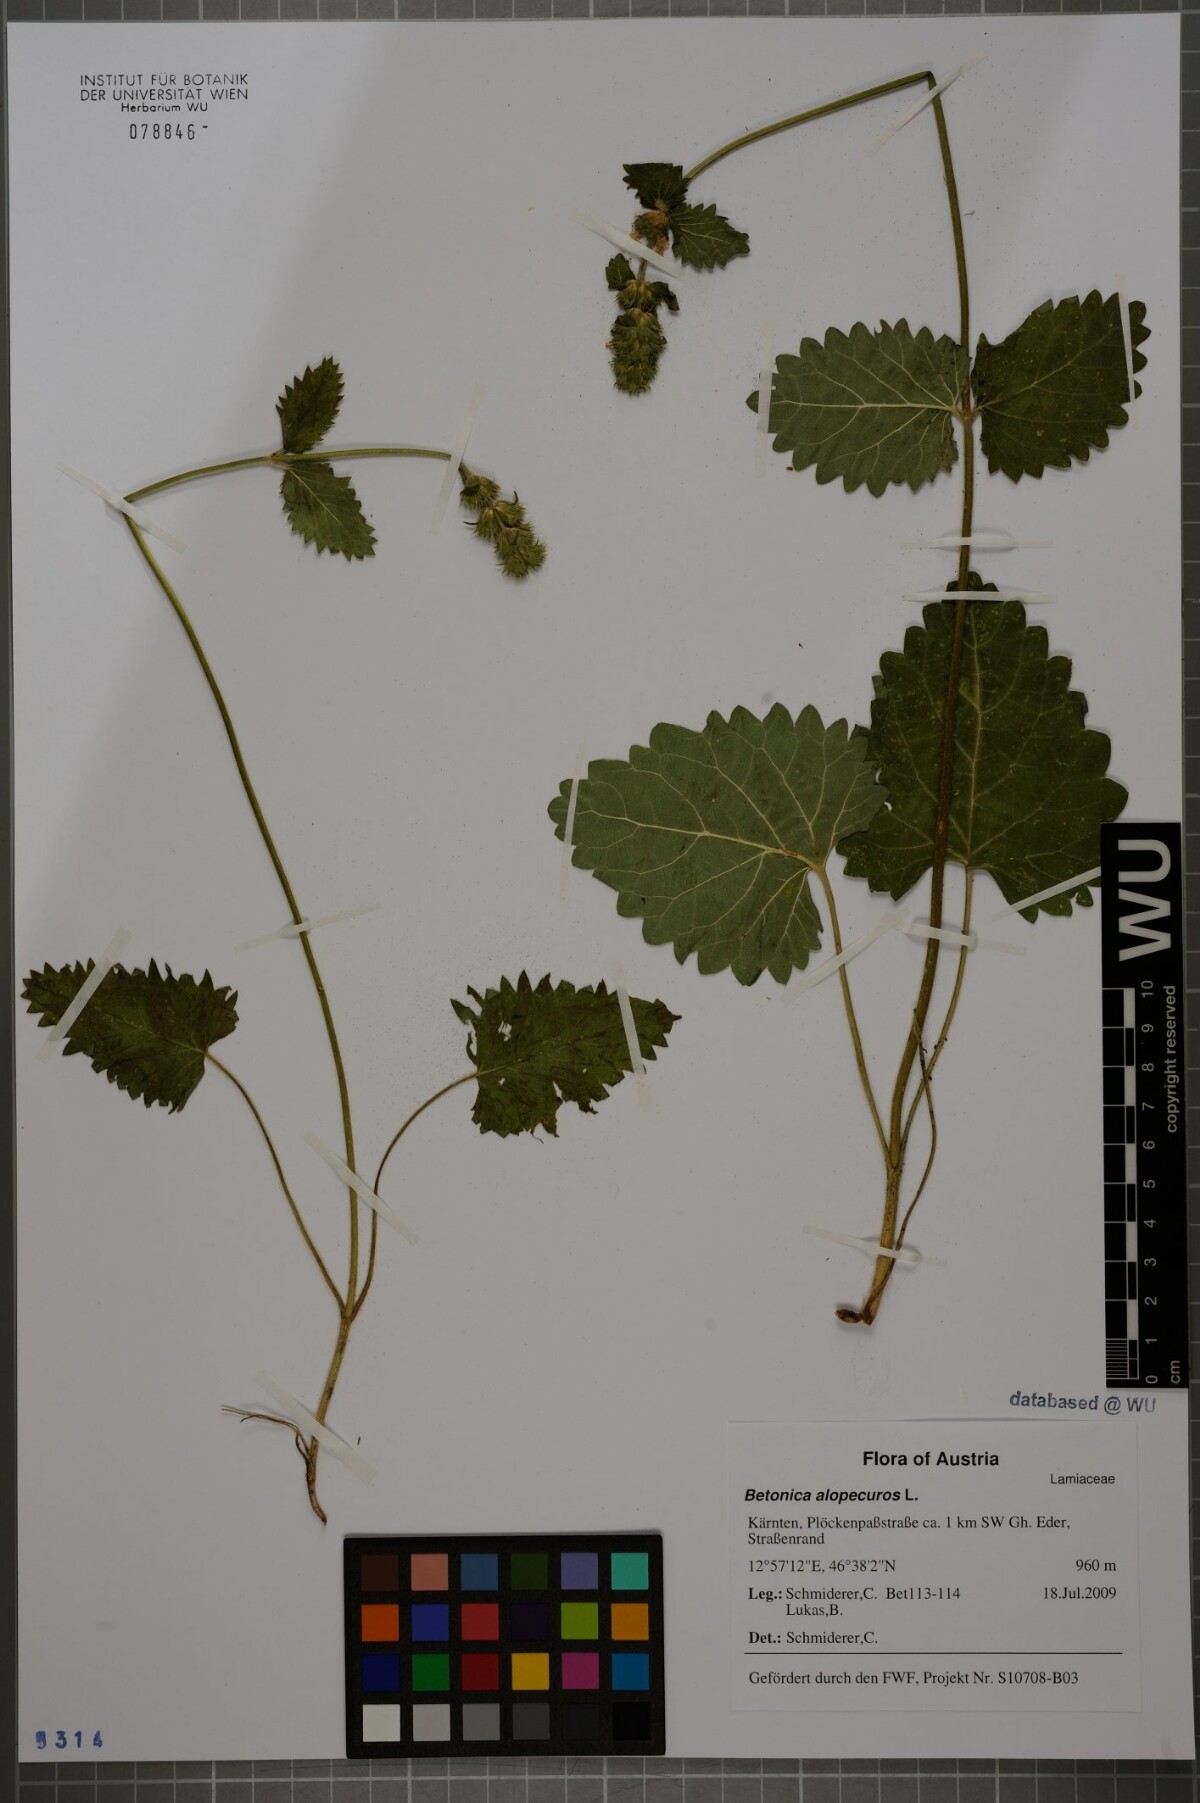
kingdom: Plantae
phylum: Tracheophyta
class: Magnoliopsida
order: Lamiales
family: Lamiaceae
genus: Betonica
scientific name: Betonica alopecuros
